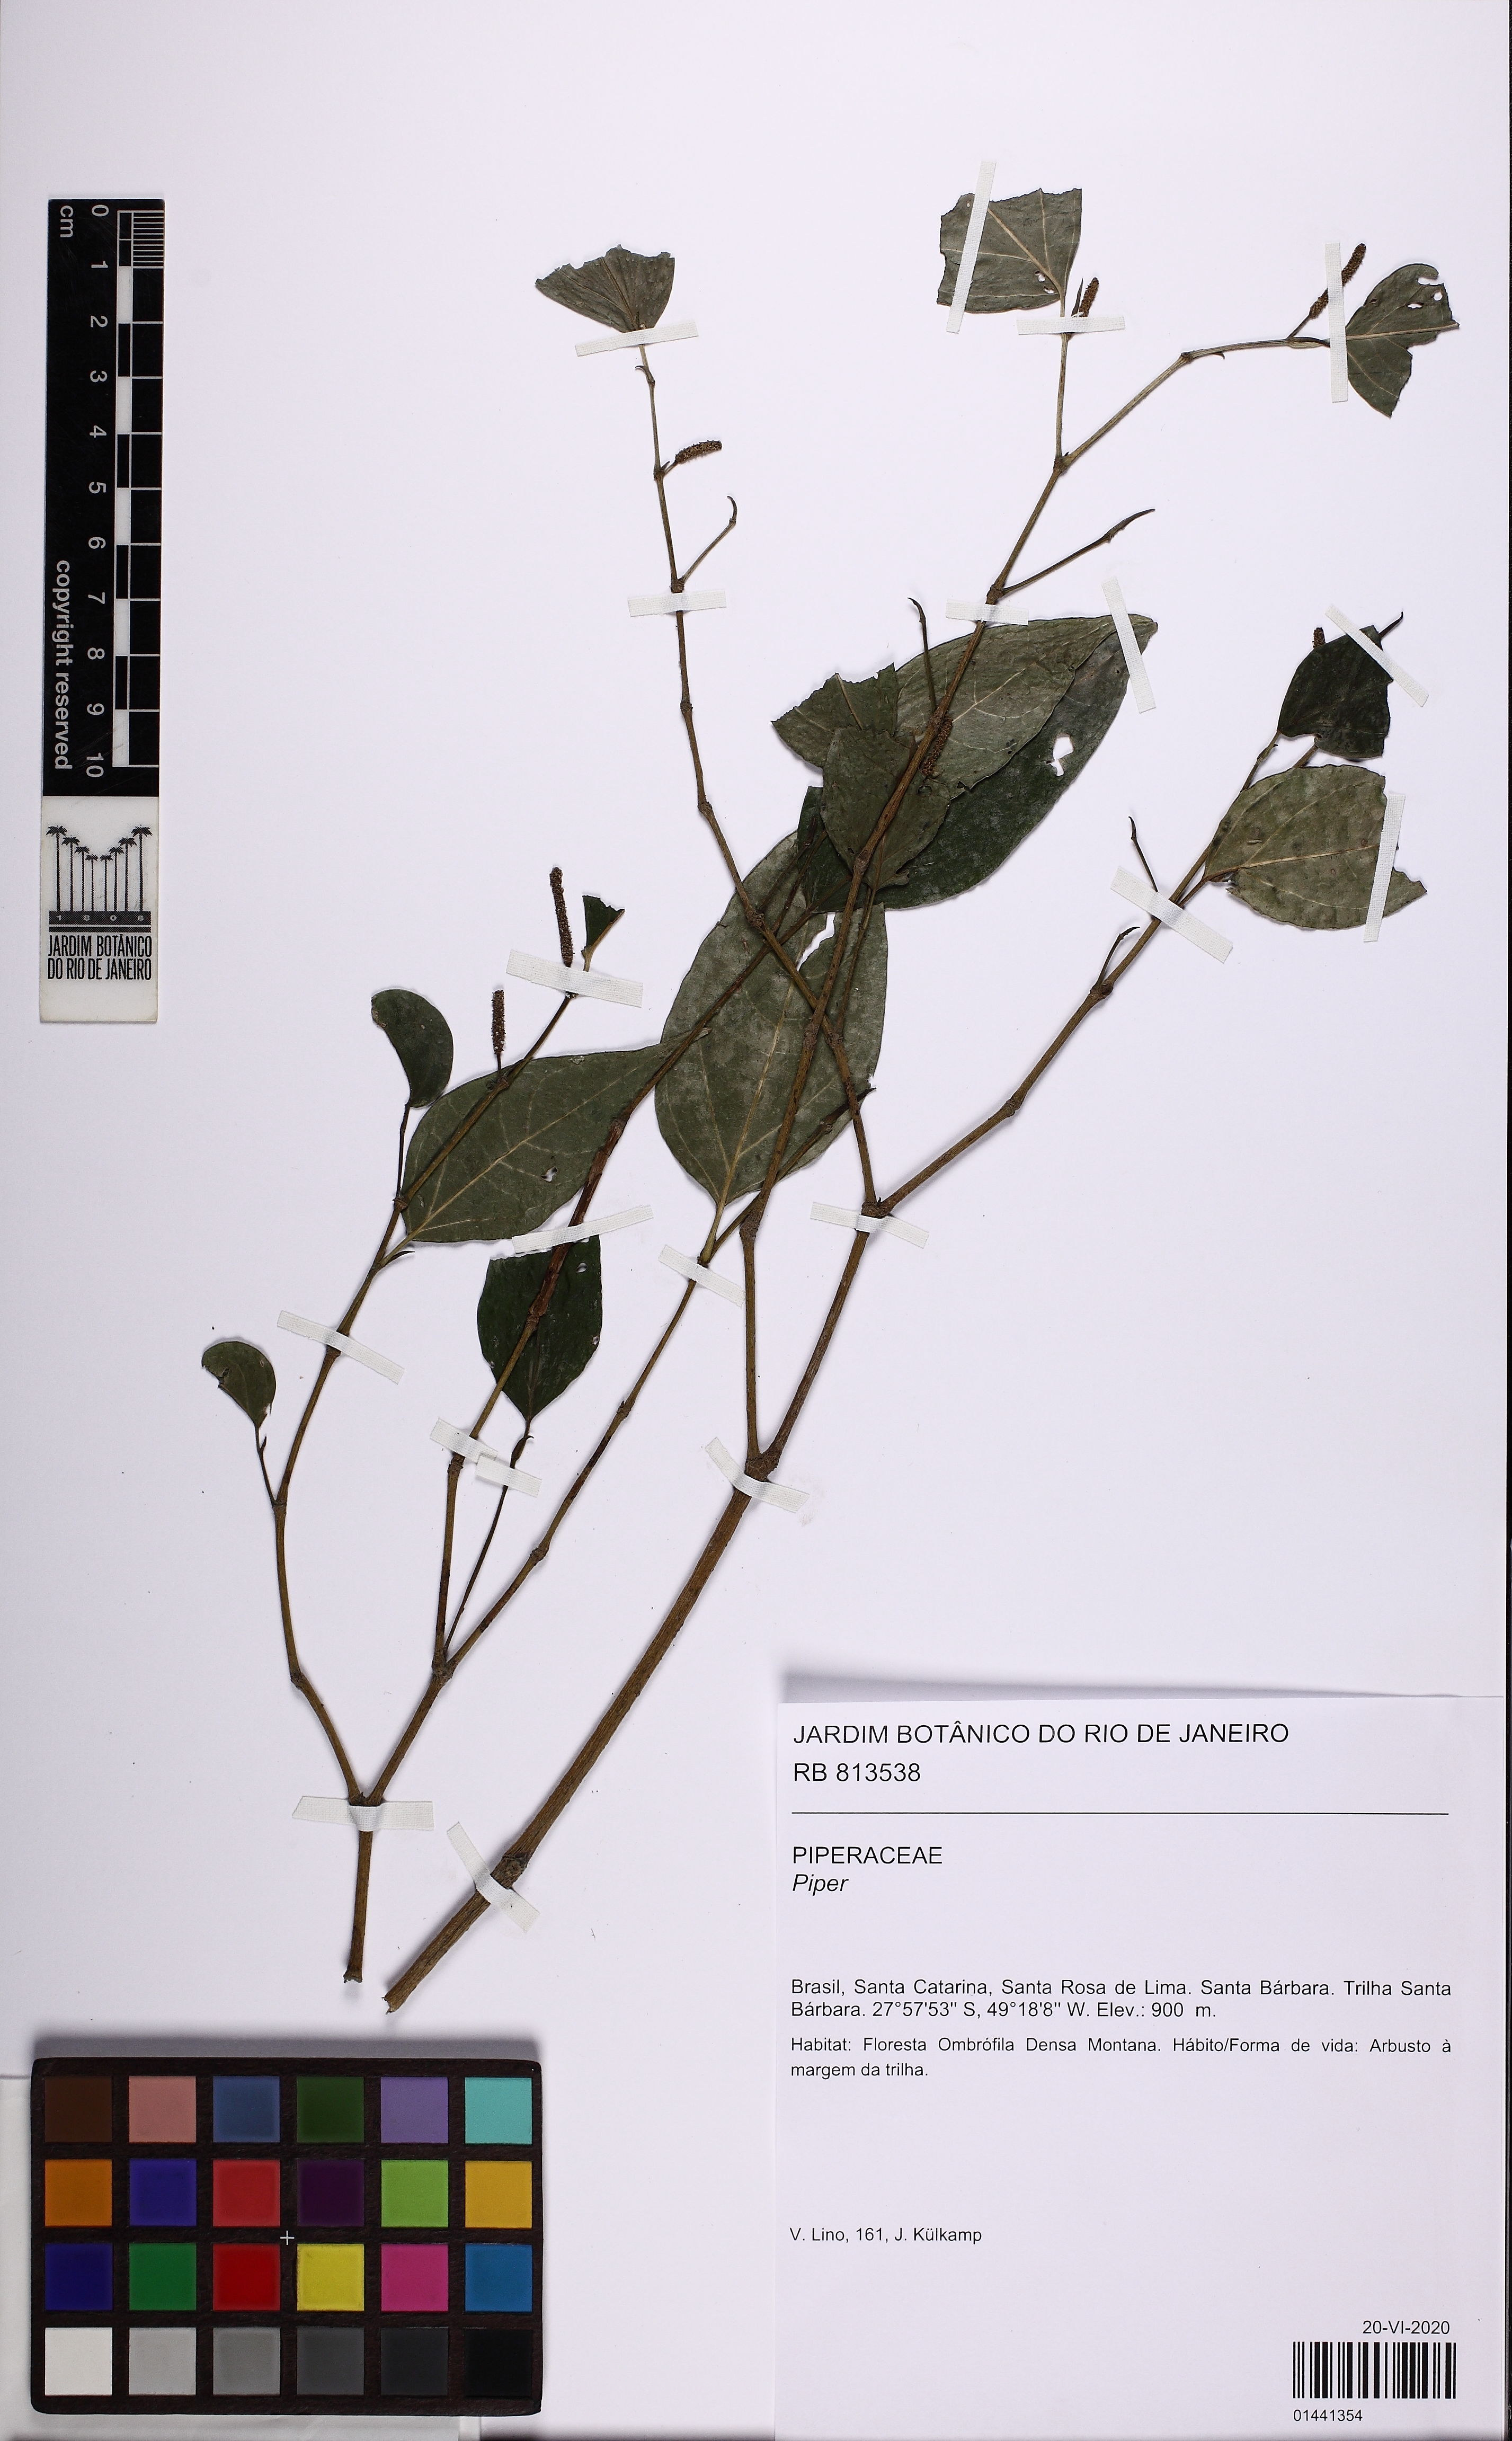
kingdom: Plantae
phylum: Tracheophyta
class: Magnoliopsida
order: Piperales
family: Piperaceae
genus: Piper
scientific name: Piper
